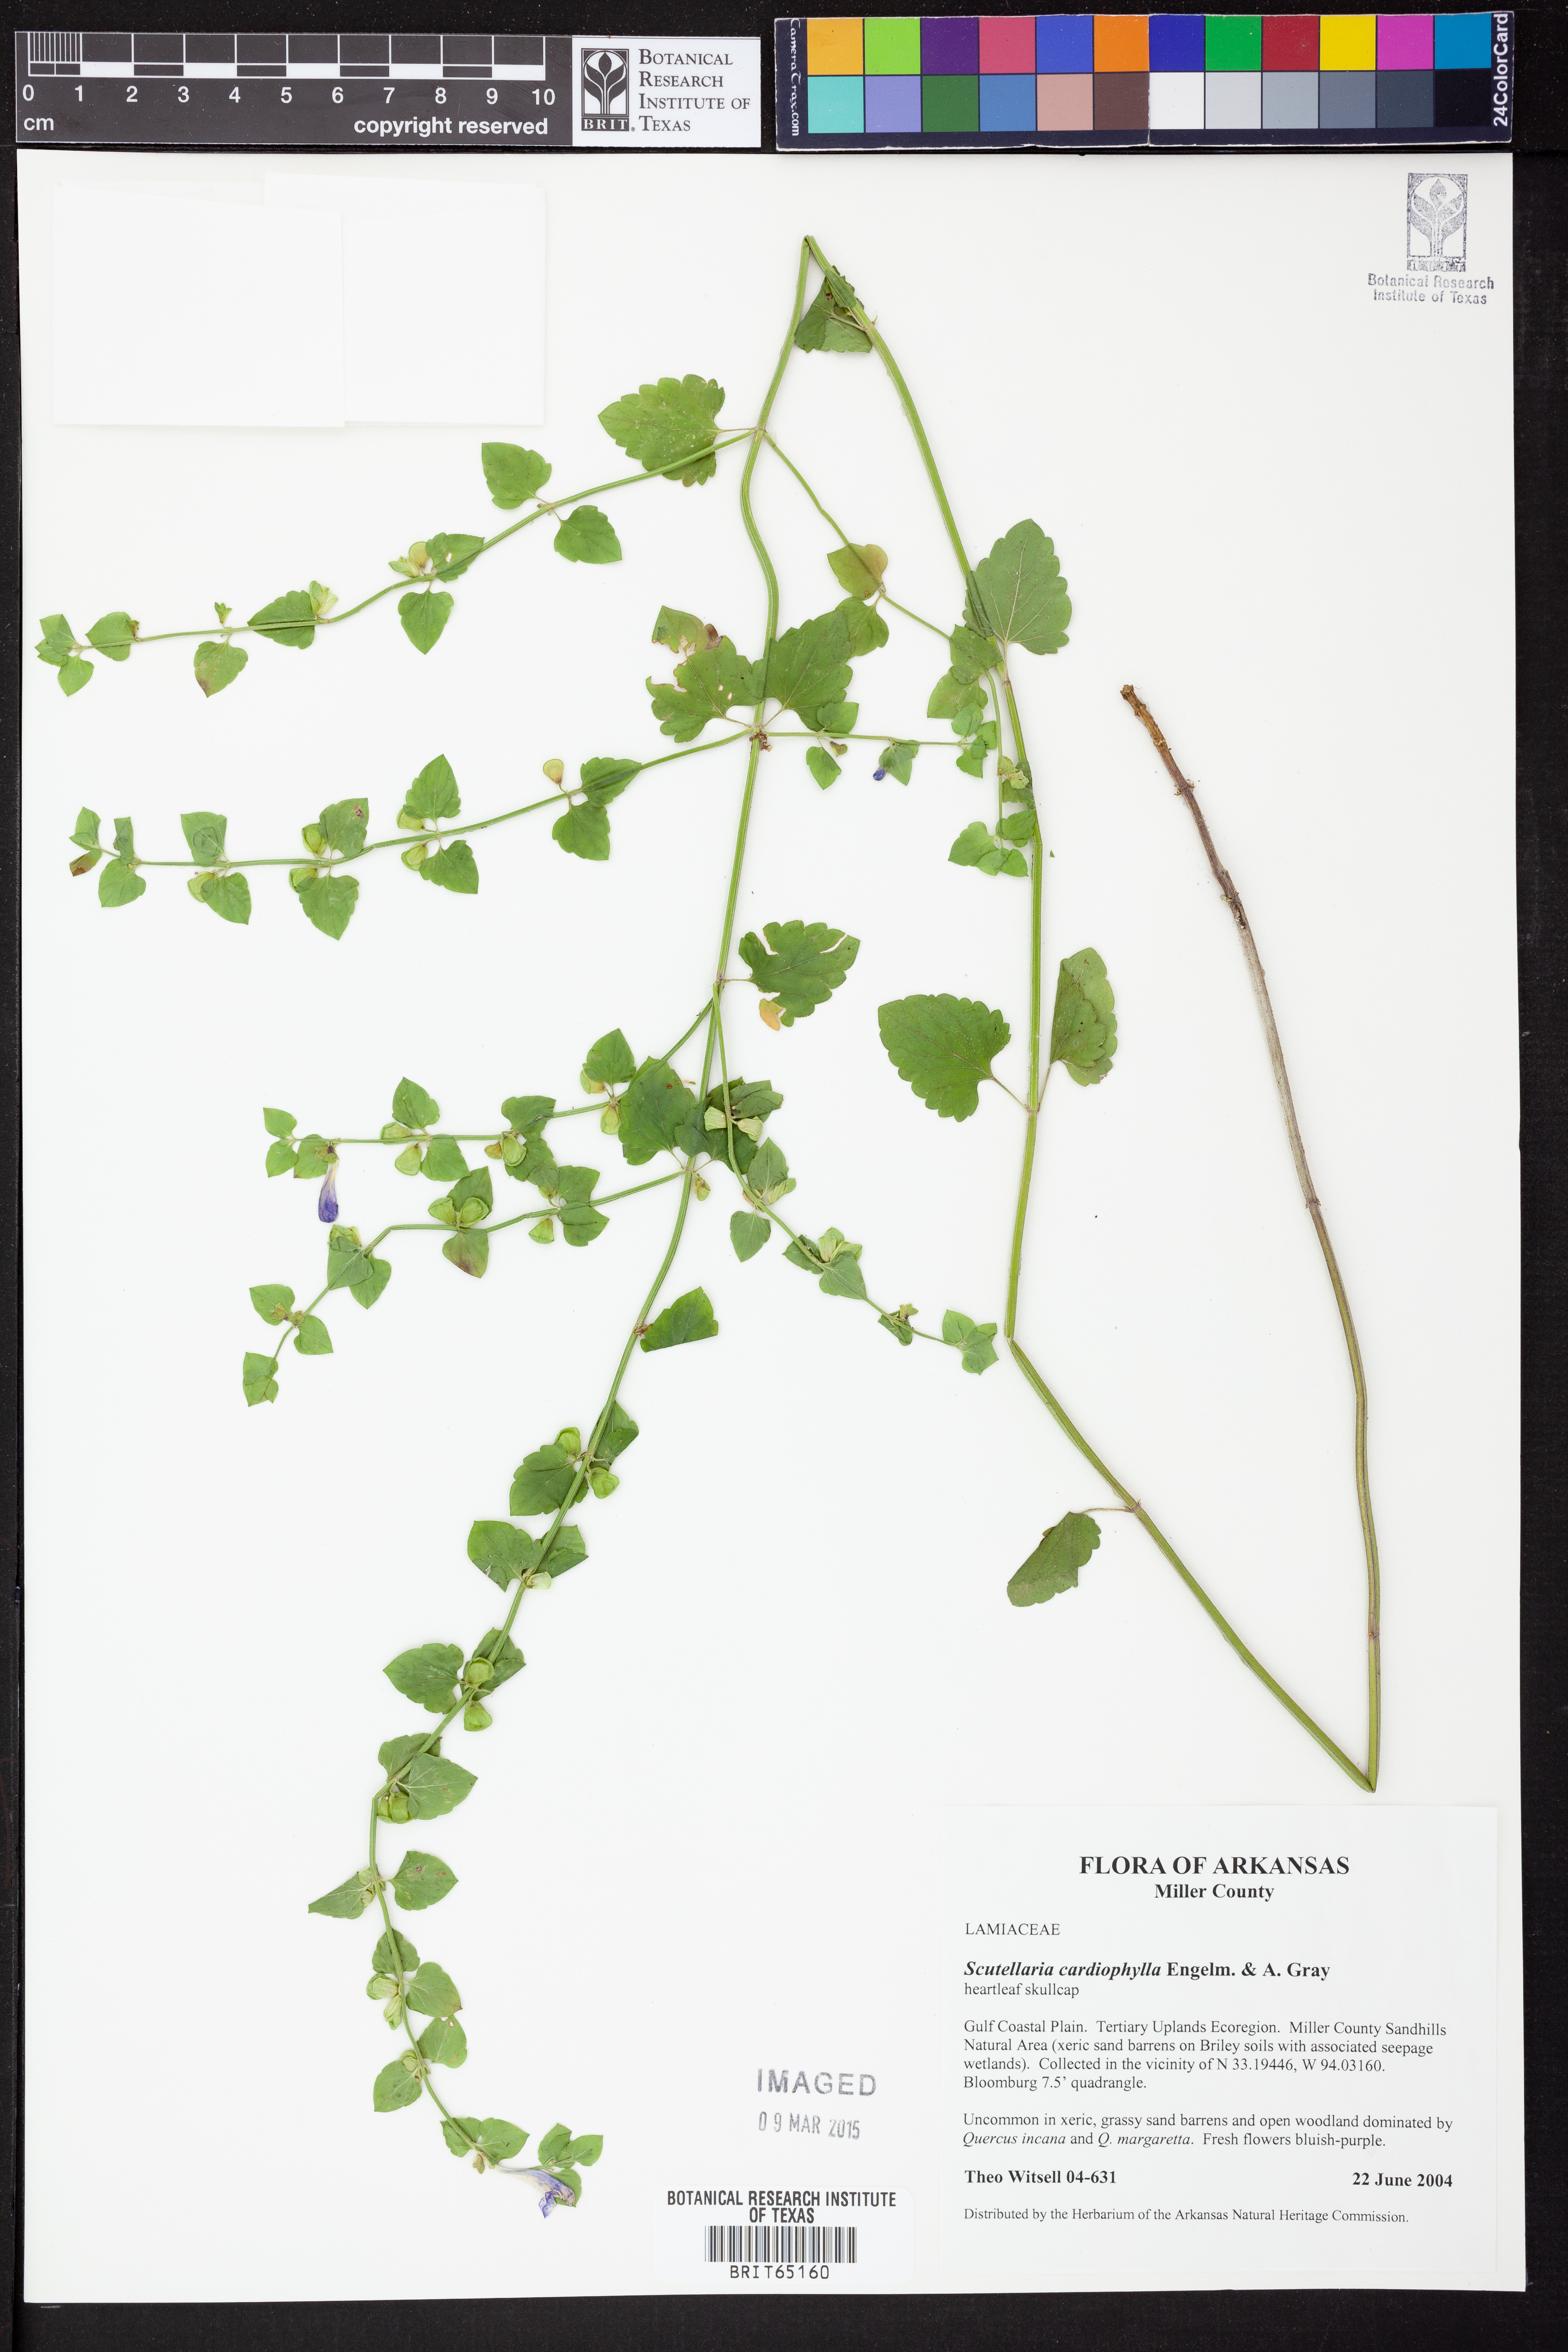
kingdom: Plantae
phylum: Tracheophyta
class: Magnoliopsida
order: Lamiales
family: Lamiaceae
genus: Scutellaria
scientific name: Scutellaria
